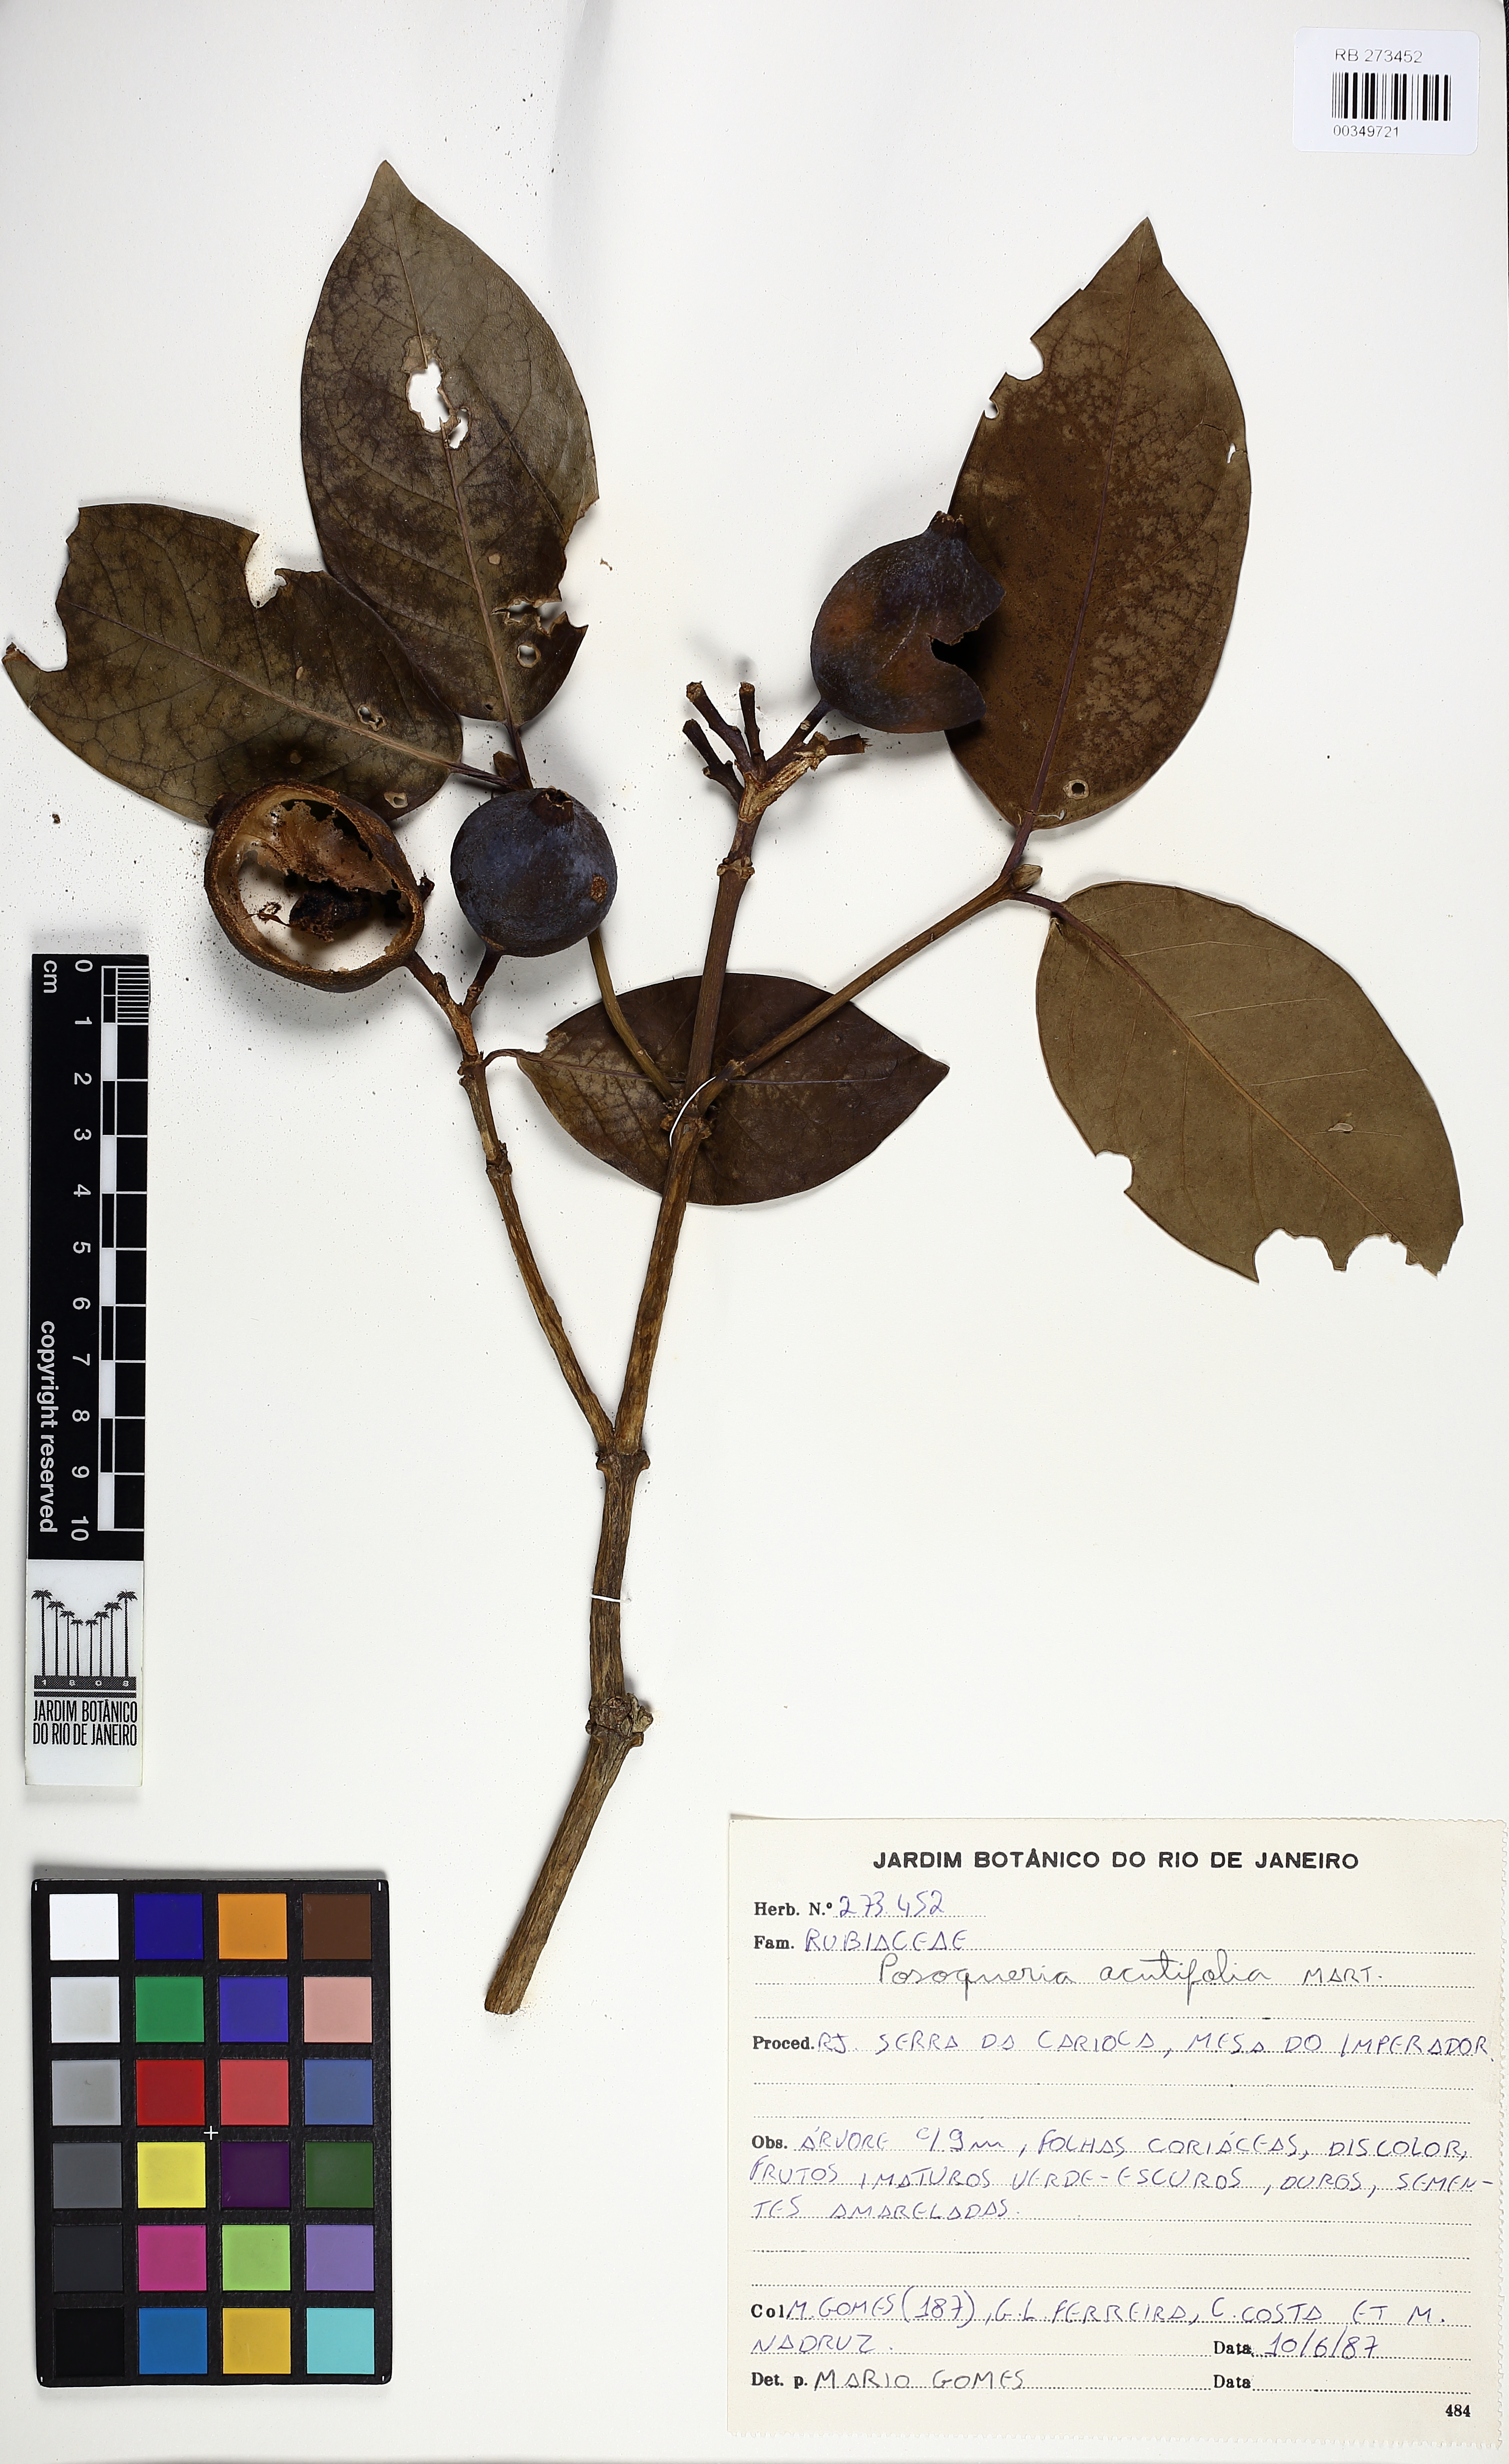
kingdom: Plantae
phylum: Tracheophyta
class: Magnoliopsida
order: Gentianales
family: Rubiaceae
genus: Posoqueria
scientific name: Posoqueria latifolia
